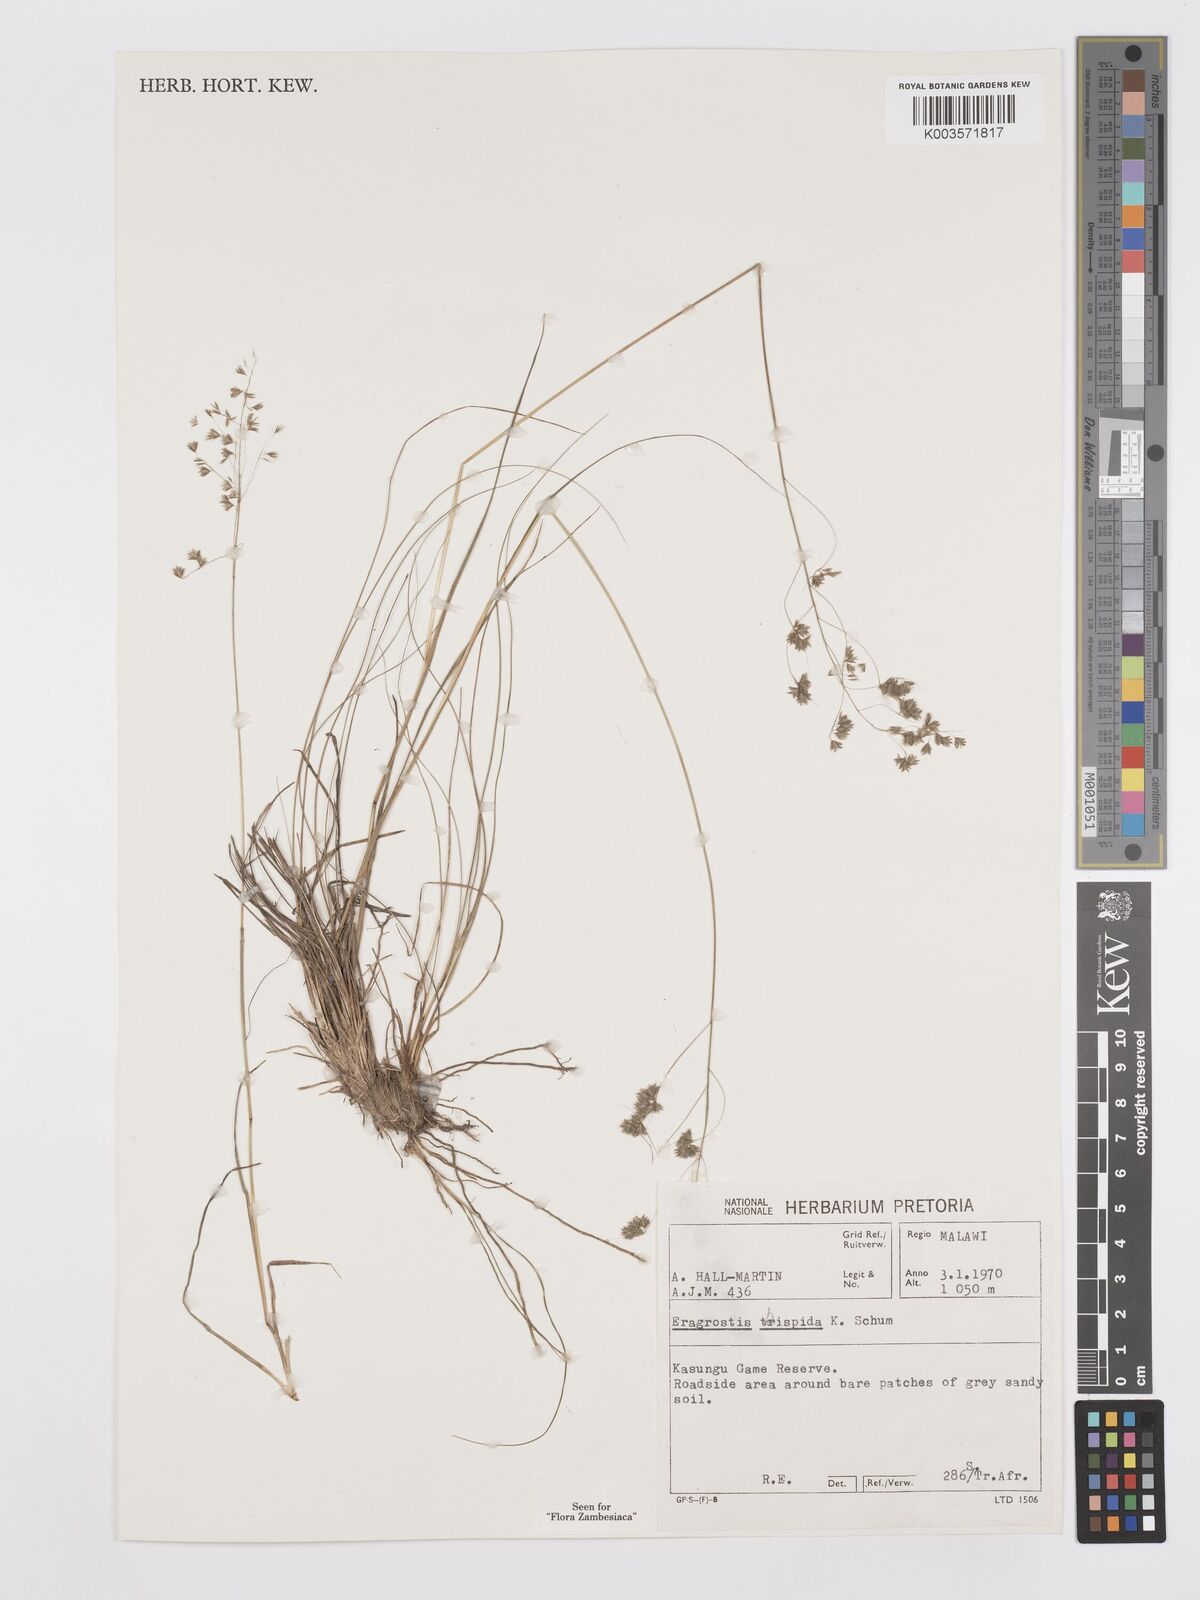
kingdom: Plantae
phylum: Tracheophyta
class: Liliopsida
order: Poales
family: Poaceae
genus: Eragrostis
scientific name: Eragrostis hispida
